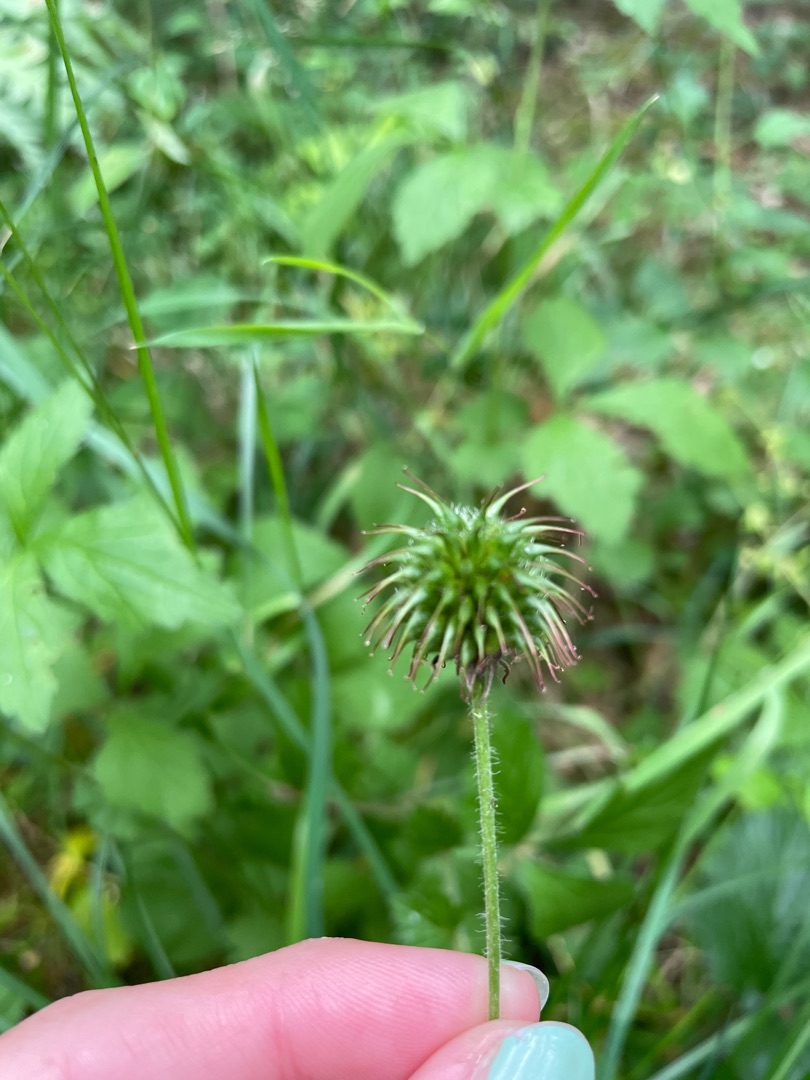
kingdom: Plantae
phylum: Tracheophyta
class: Magnoliopsida
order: Rosales
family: Rosaceae
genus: Geum
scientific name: Geum urbanum
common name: Feber-nellikerod
